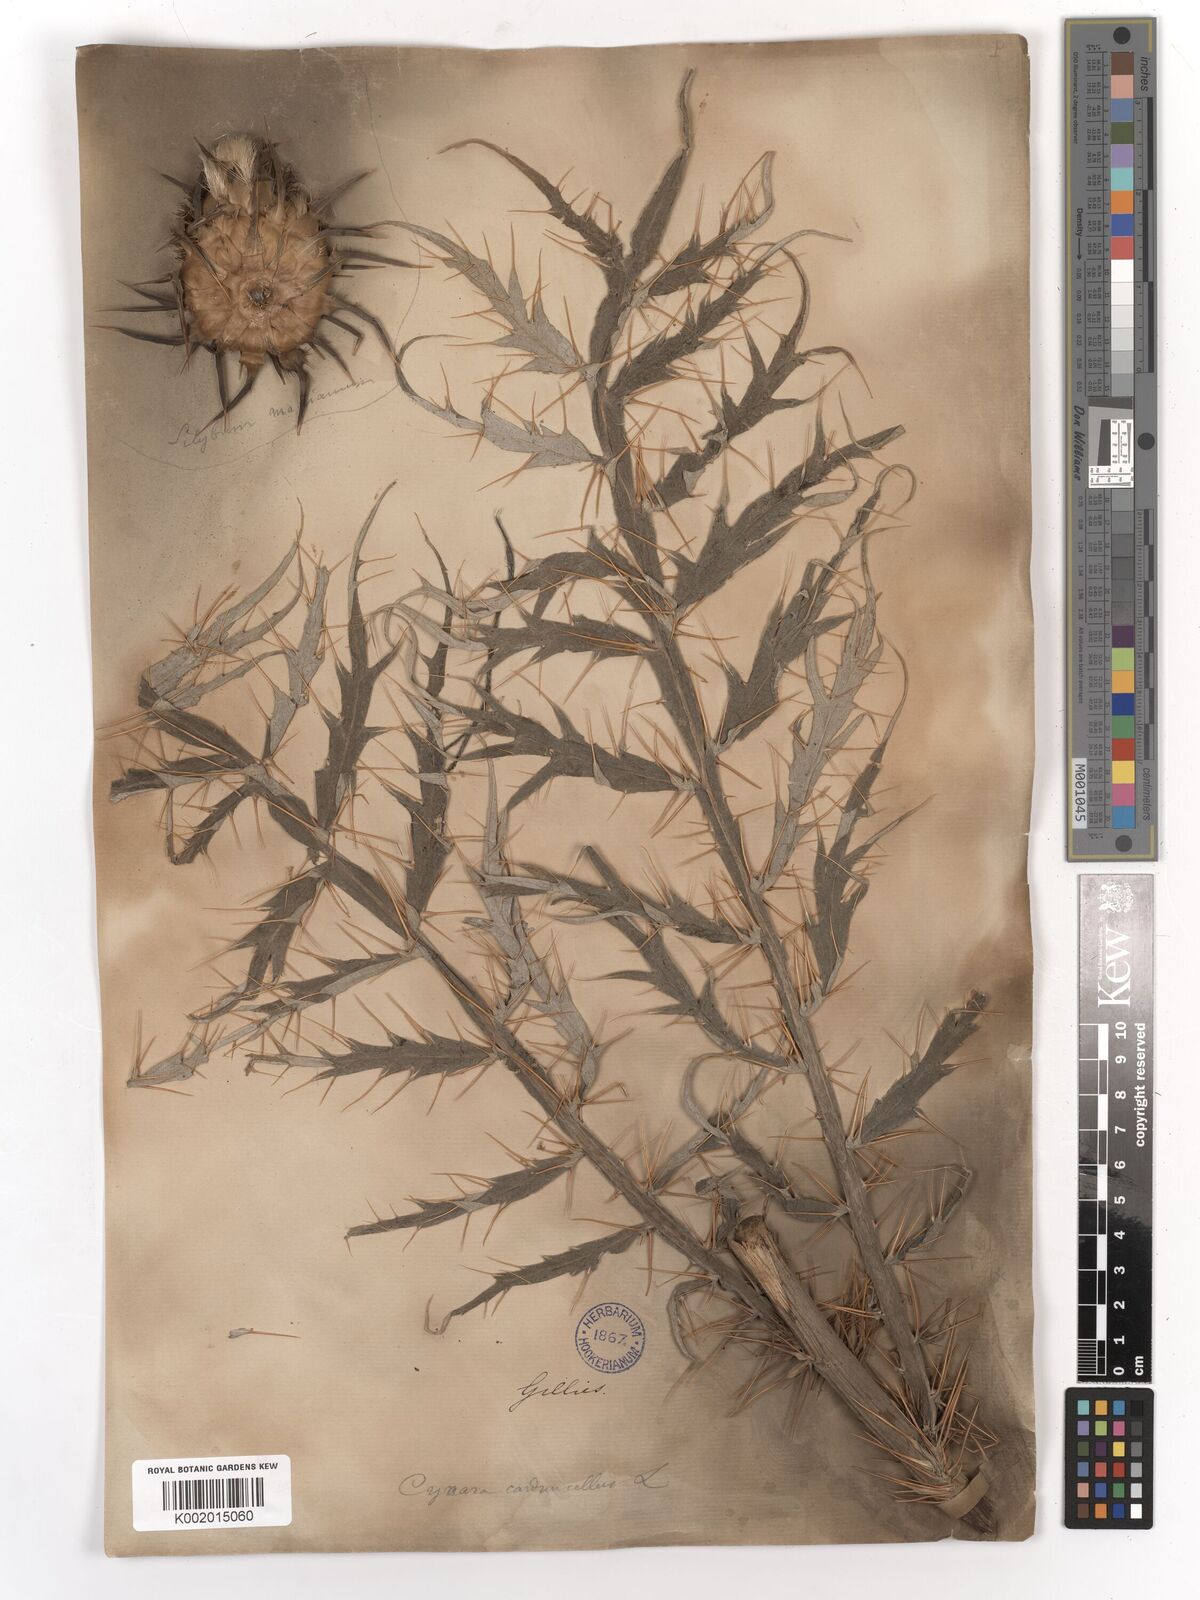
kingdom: Plantae
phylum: Tracheophyta
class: Magnoliopsida
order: Asterales
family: Asteraceae
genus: Cynara
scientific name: Cynara cardunculus
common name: Globe artichoke
